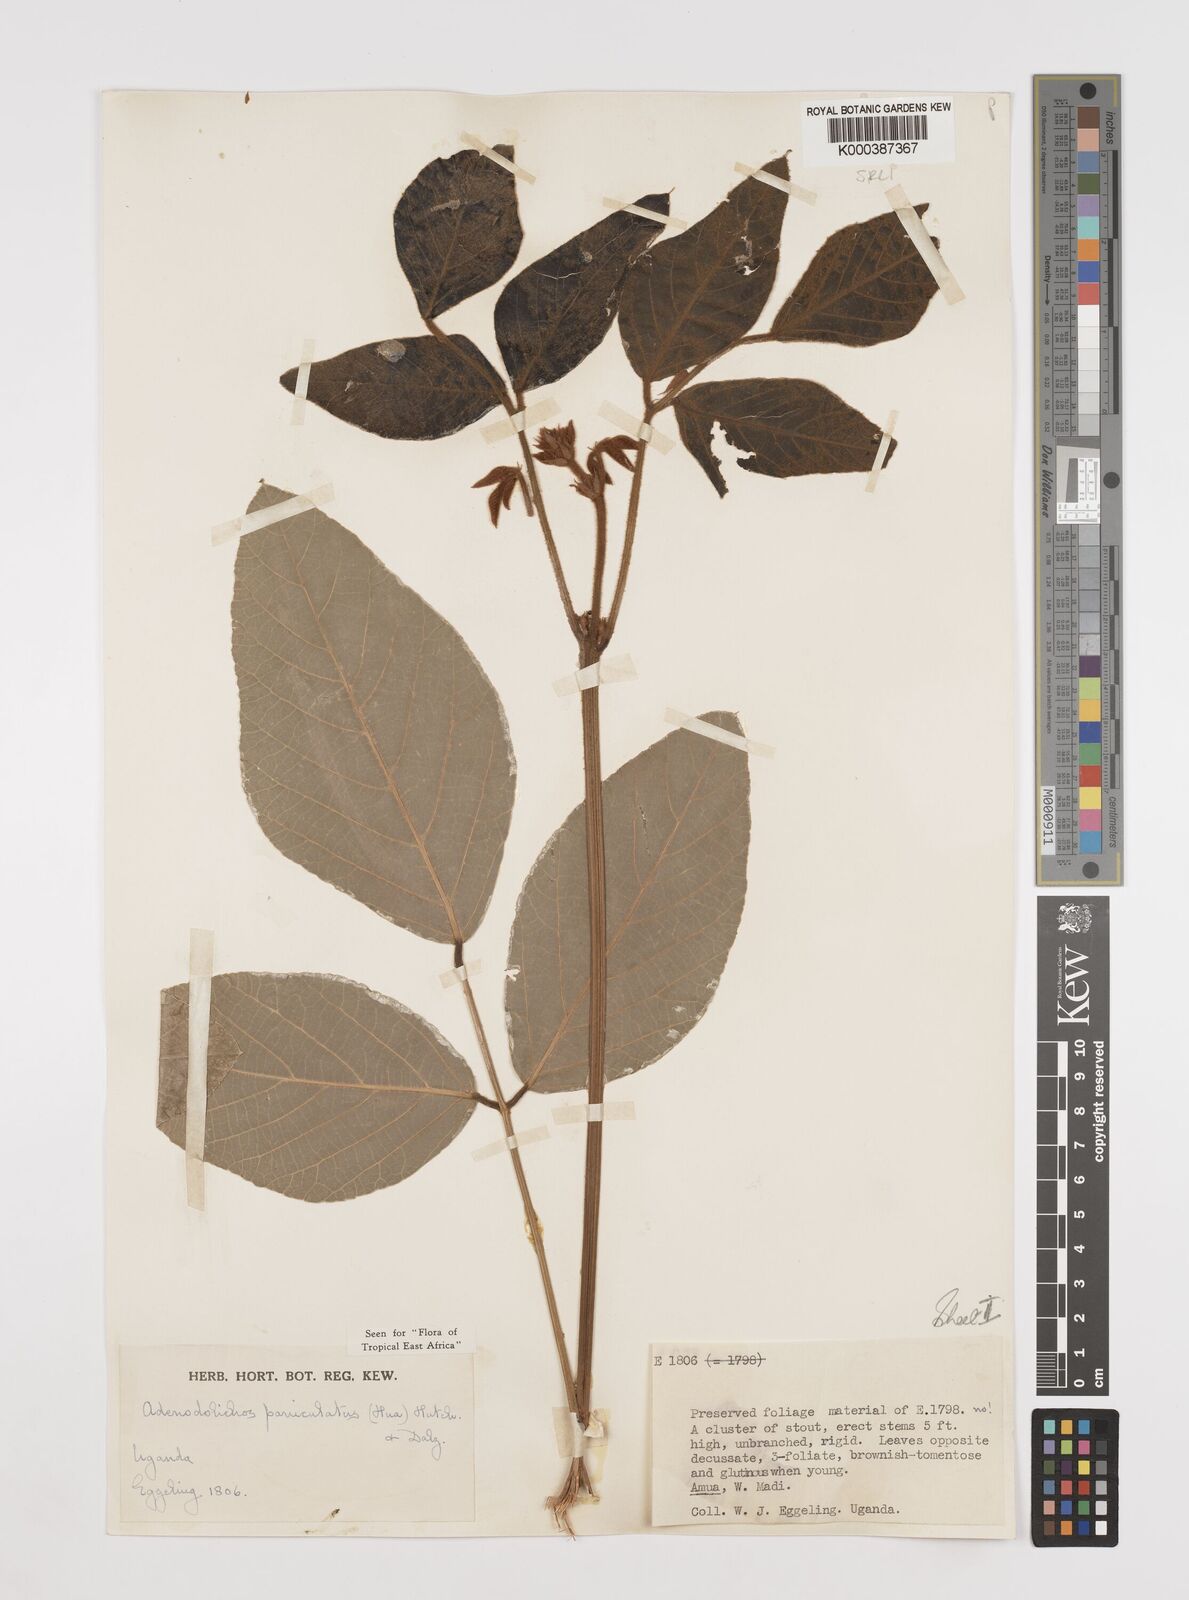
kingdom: Plantae
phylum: Tracheophyta
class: Magnoliopsida
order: Fabales
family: Fabaceae
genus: Adenodolichos
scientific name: Adenodolichos kaessneri
